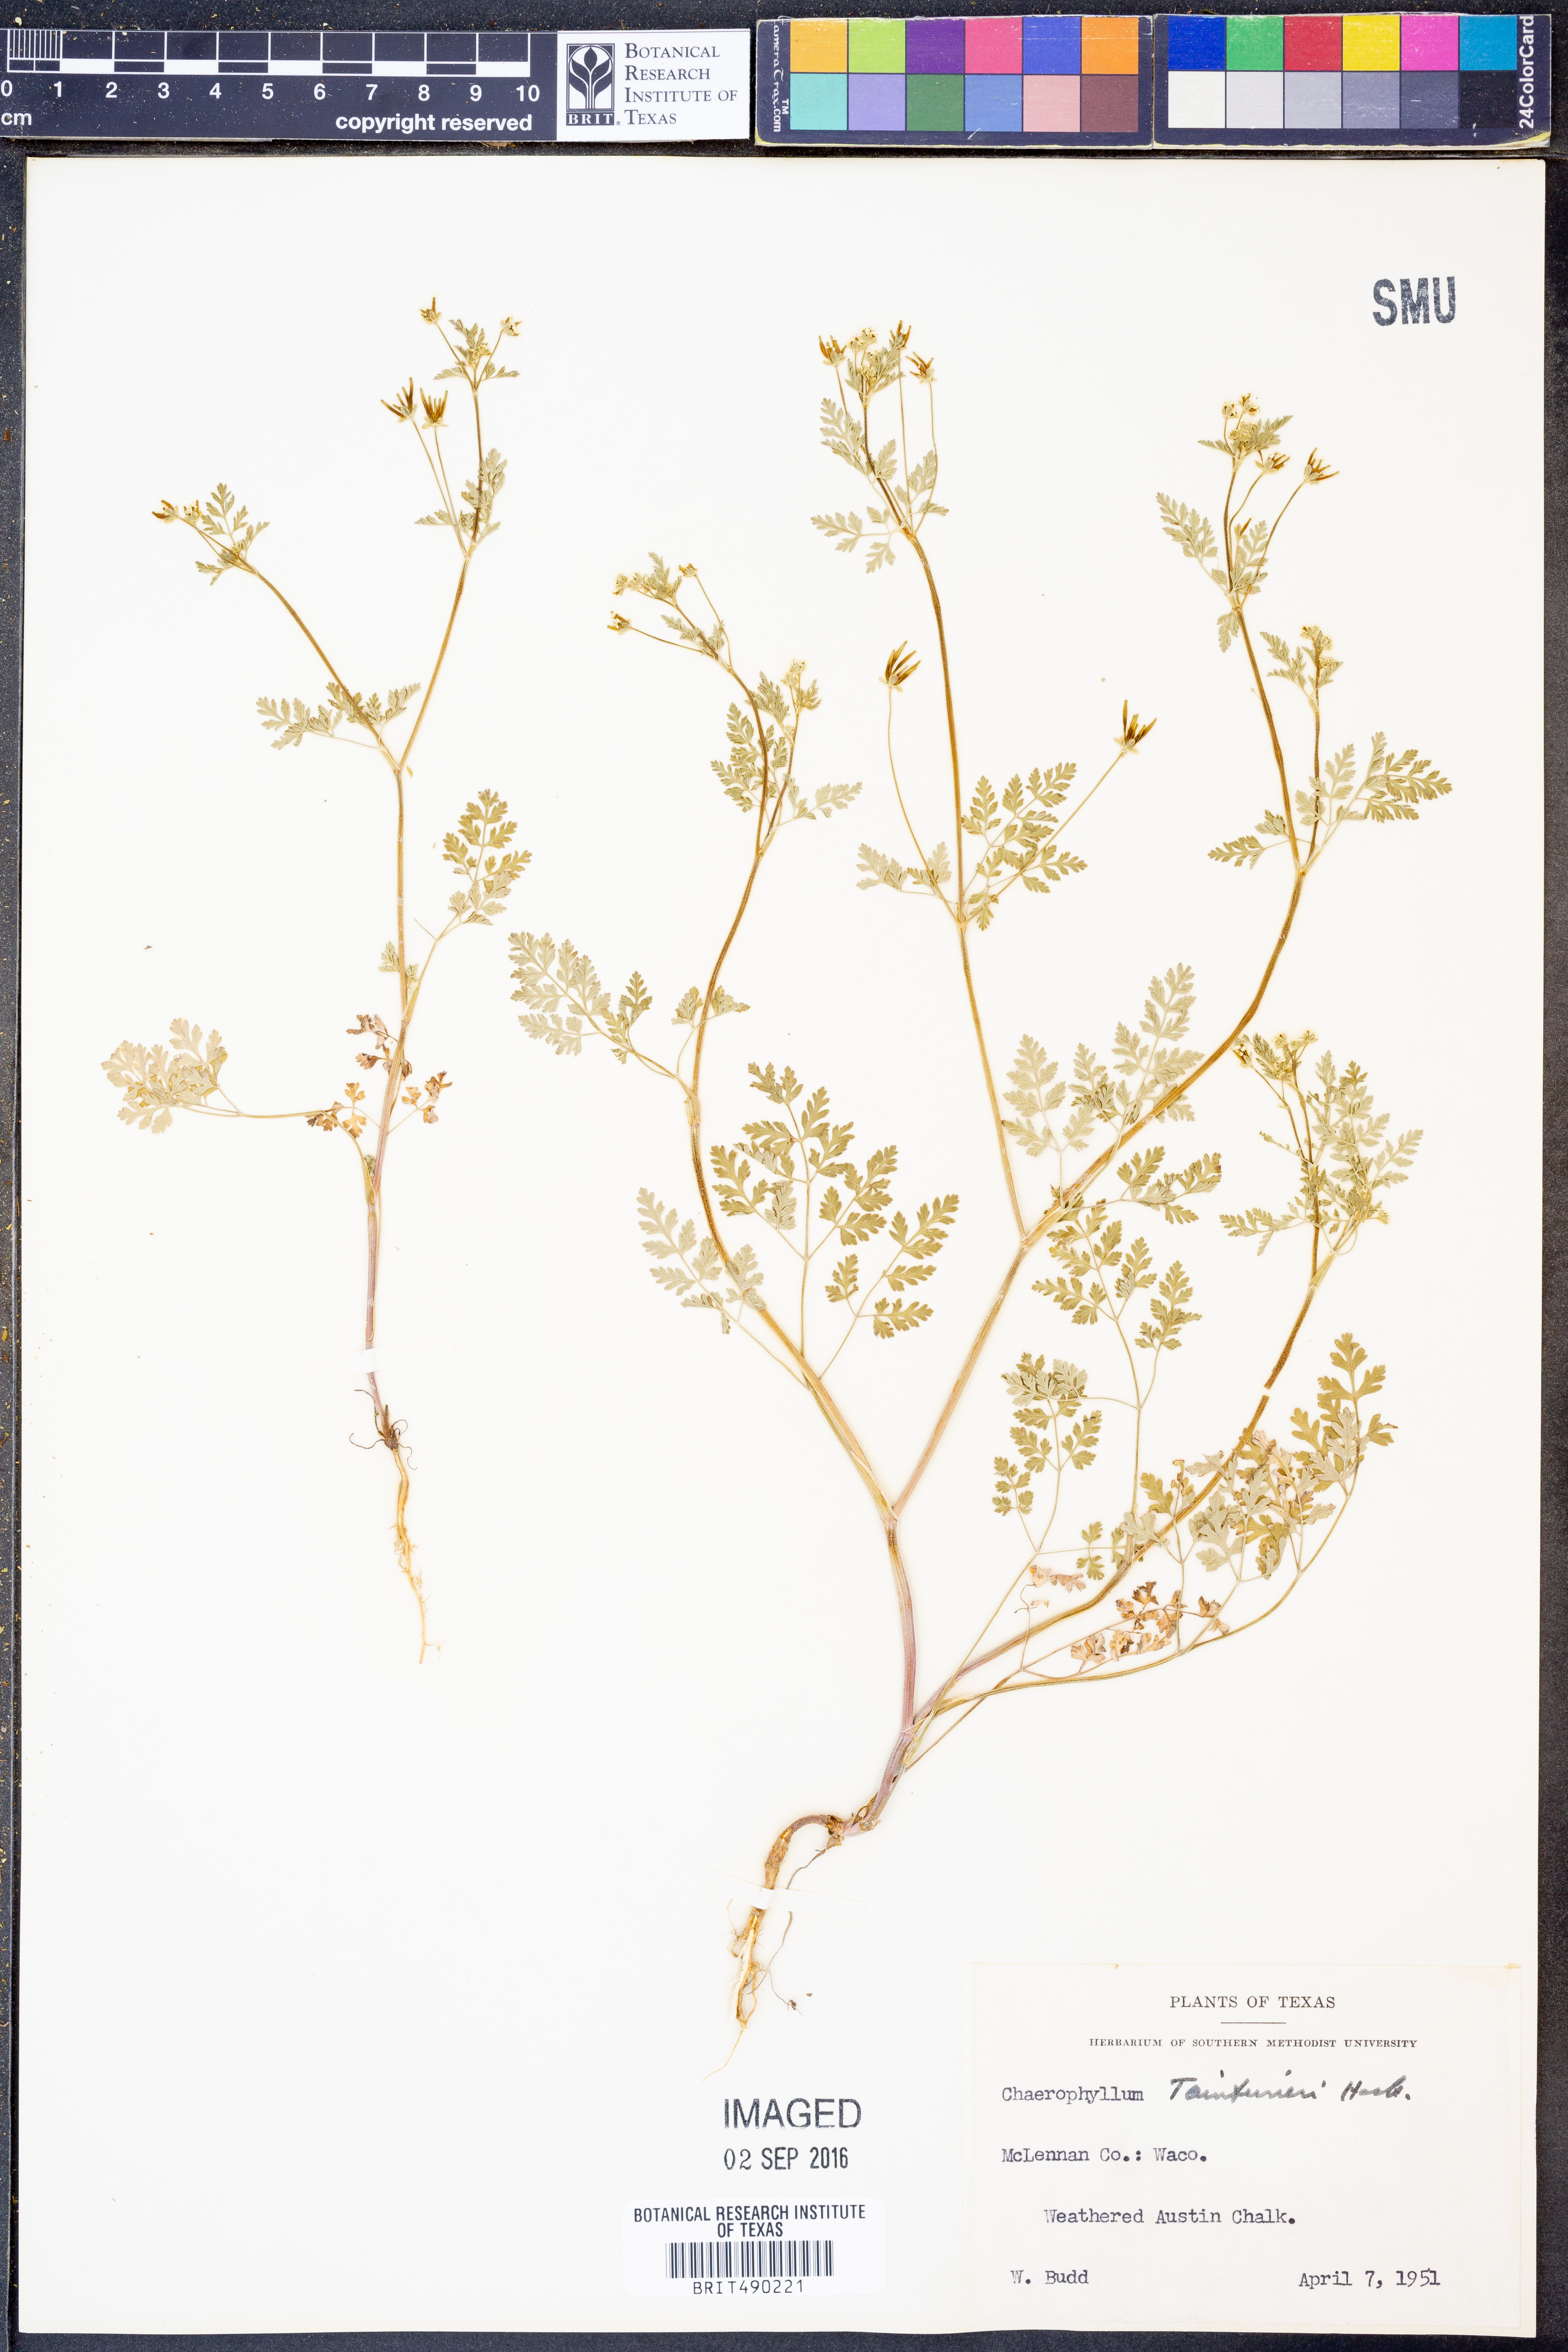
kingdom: Plantae
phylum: Tracheophyta
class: Magnoliopsida
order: Apiales
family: Apiaceae
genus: Chaerophyllum
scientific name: Chaerophyllum tainturieri
